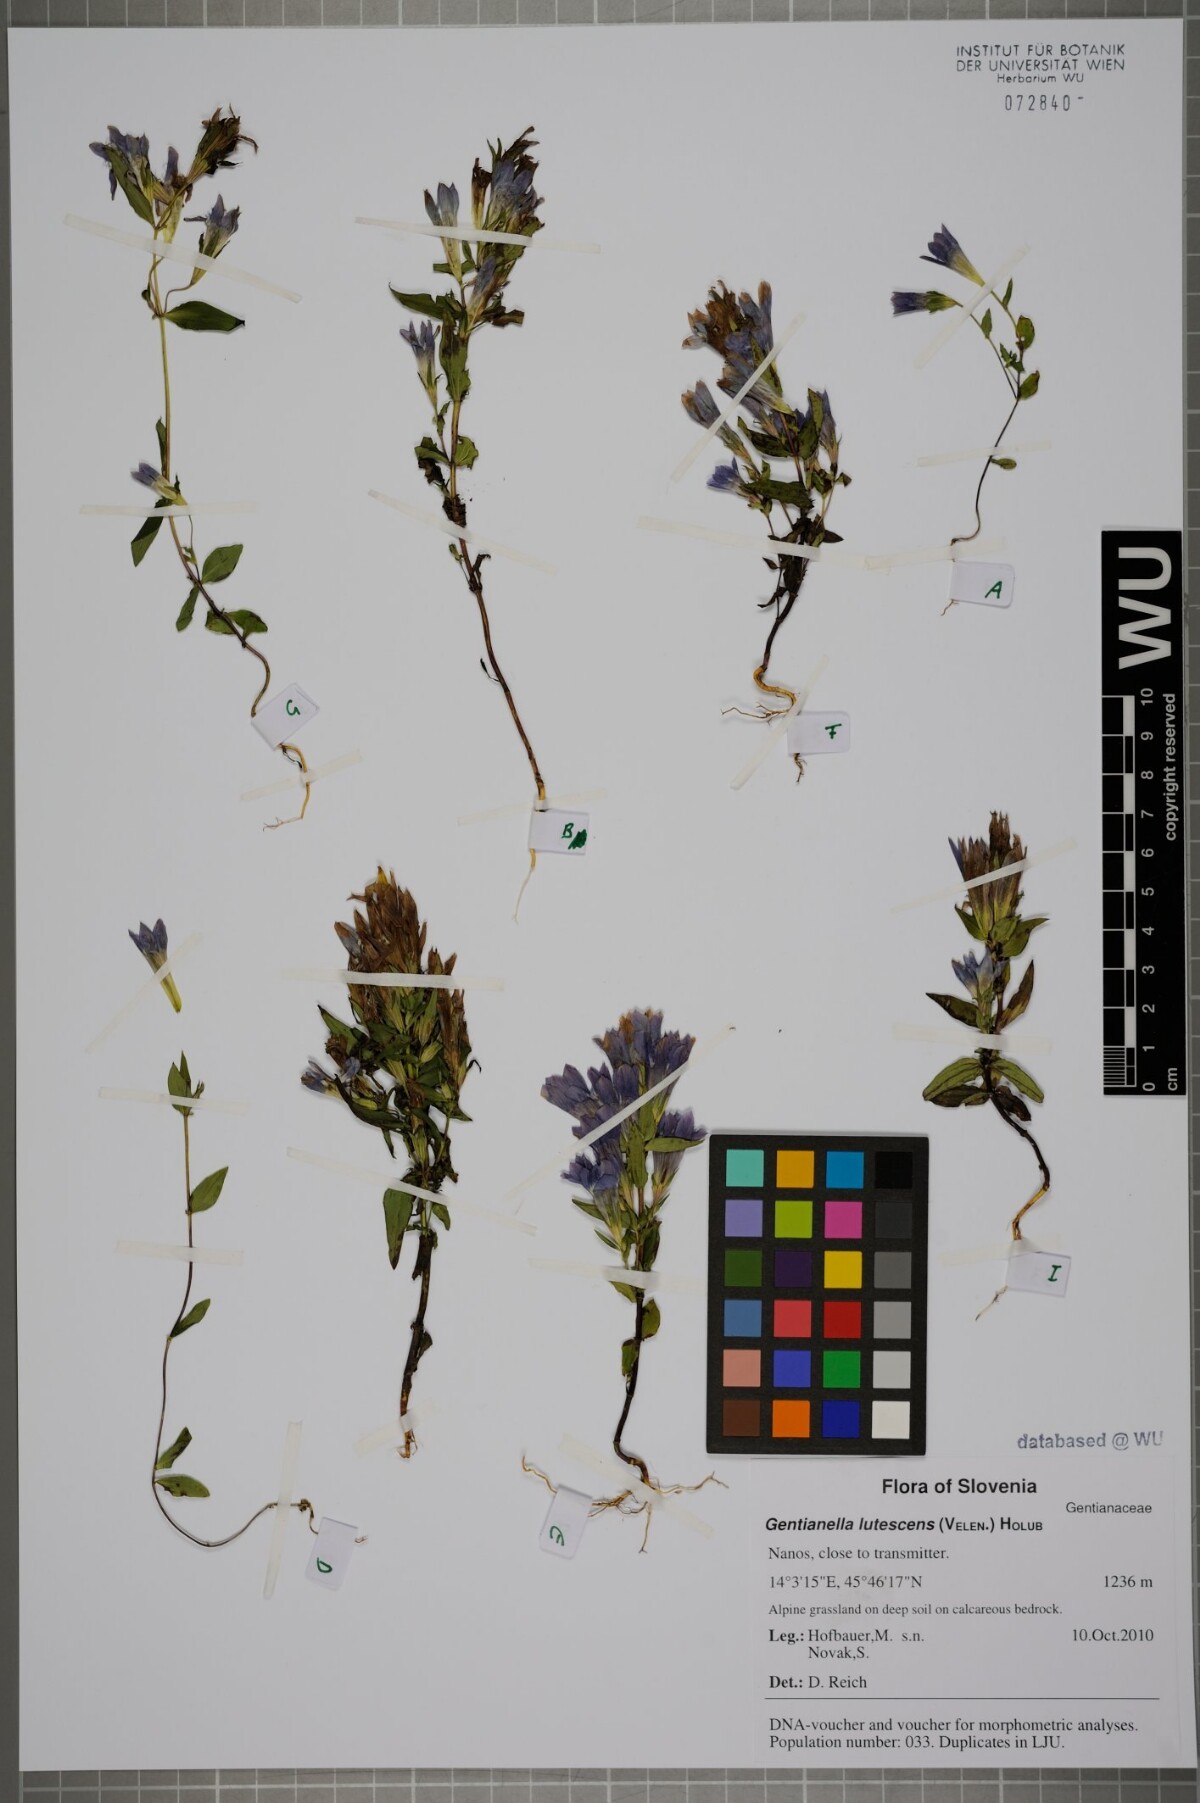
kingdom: Plantae
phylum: Tracheophyta
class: Magnoliopsida
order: Gentianales
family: Gentianaceae
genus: Gentianella
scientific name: Gentianella praecox
